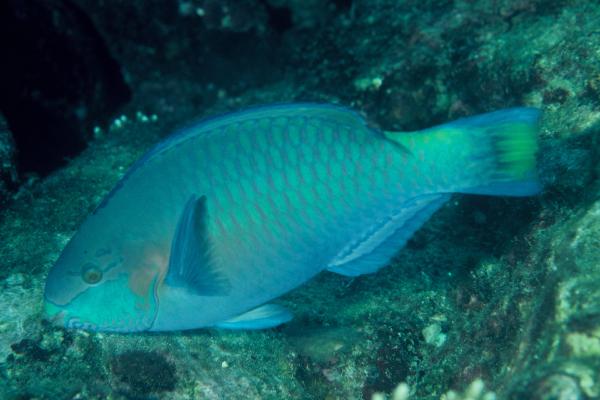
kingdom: Animalia
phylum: Chordata
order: Perciformes
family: Scaridae
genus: Scarus
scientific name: Scarus quoyi
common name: Quoy's parrotfish
